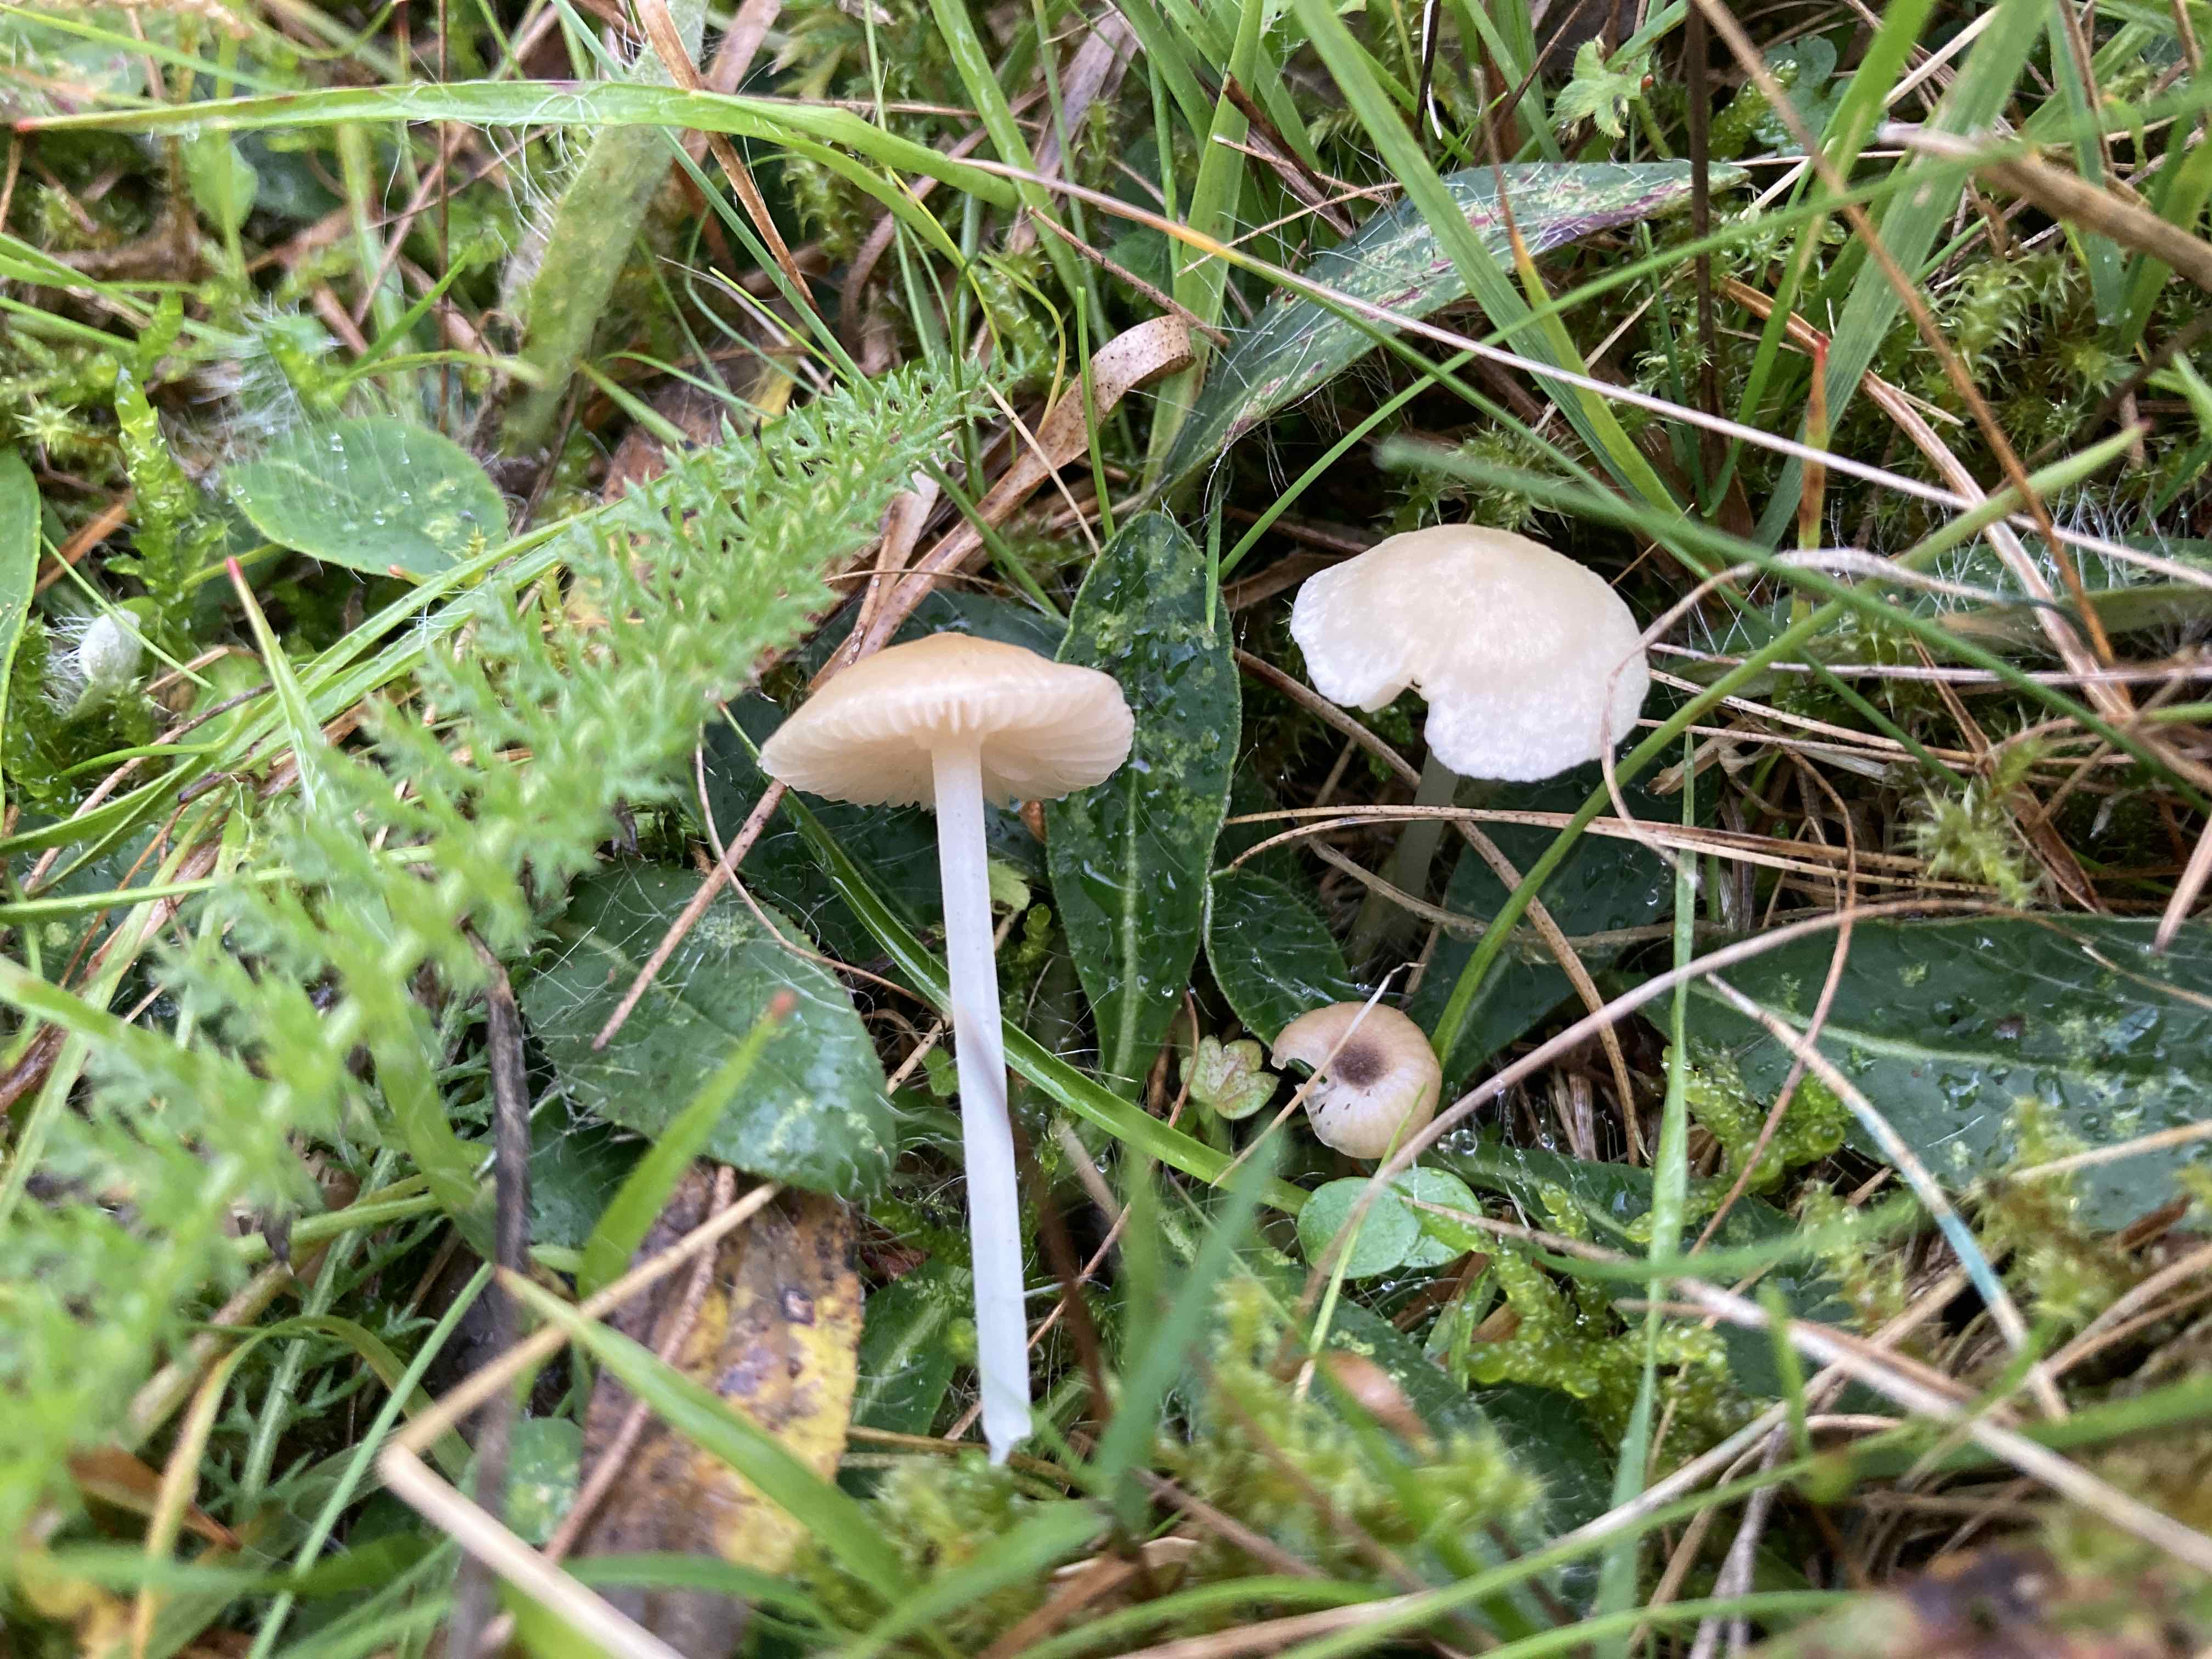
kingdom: Fungi
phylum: Basidiomycota
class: Agaricomycetes
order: Agaricales
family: Entolomataceae
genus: Entoloma
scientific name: Entoloma sericellum
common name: silkehvid rødblad
